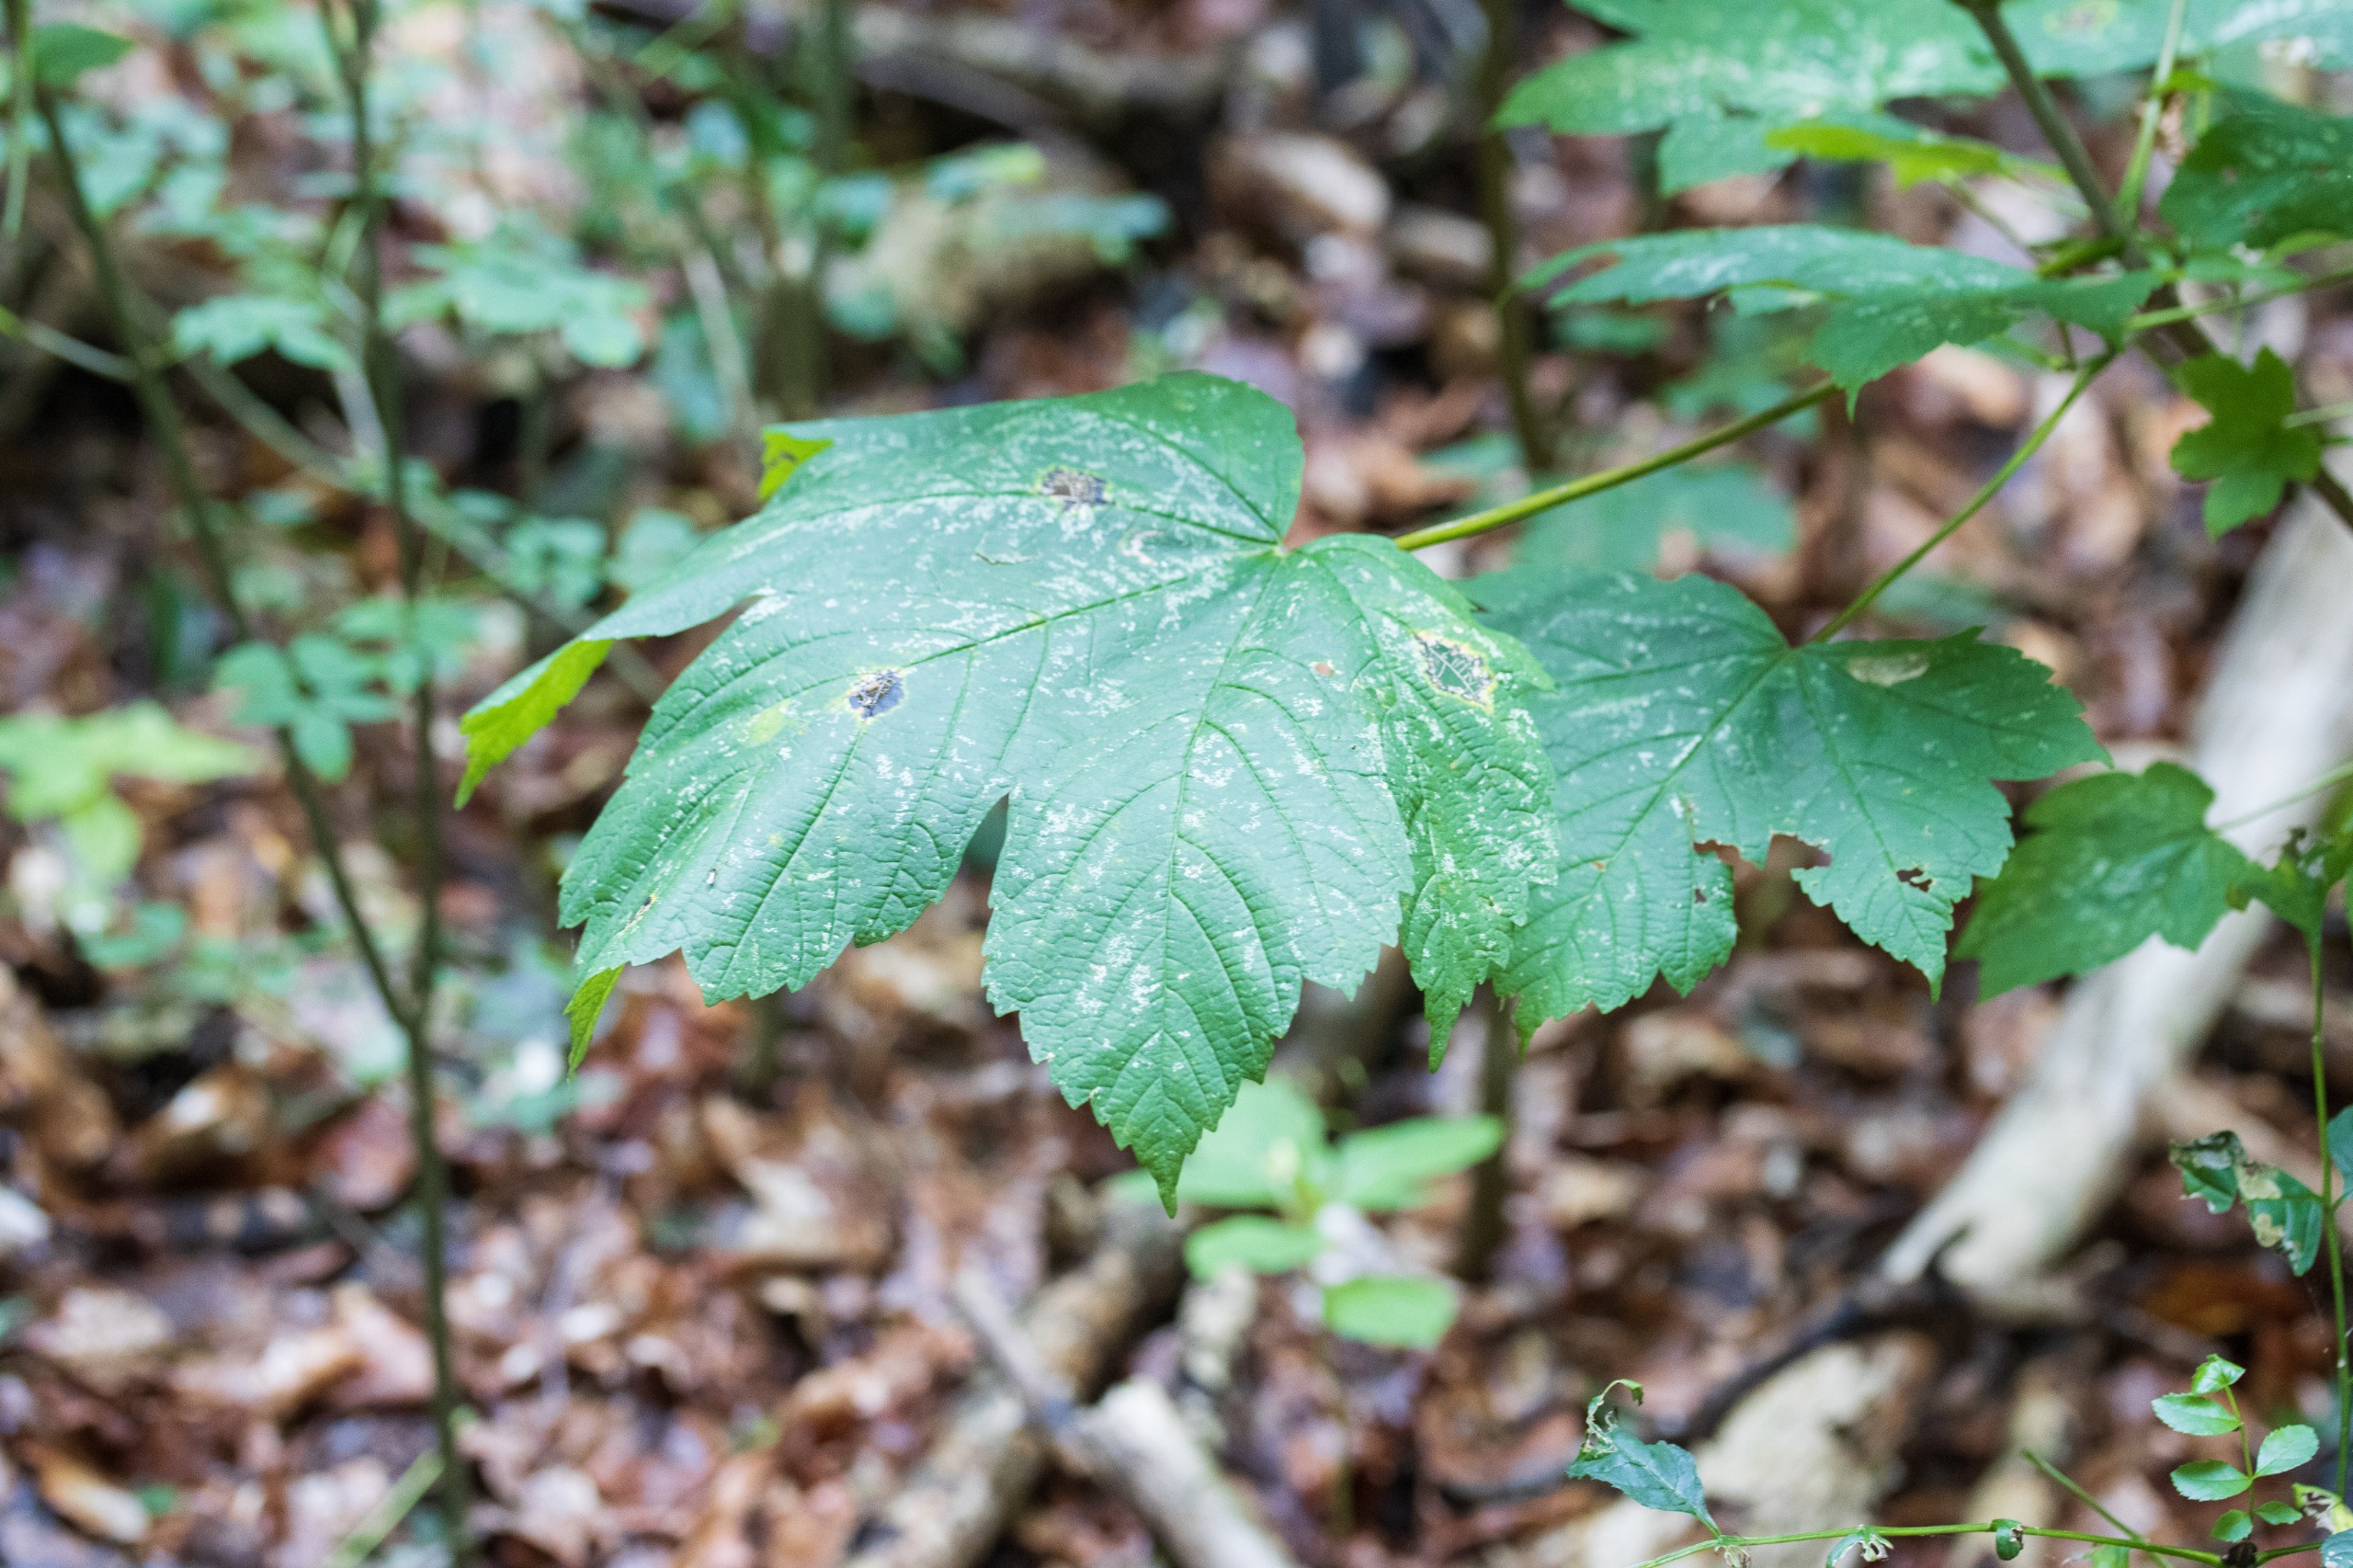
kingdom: Plantae
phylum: Tracheophyta
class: Magnoliopsida
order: Sapindales
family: Sapindaceae
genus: Acer
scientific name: Acer pseudoplatanus
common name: Ahorn
